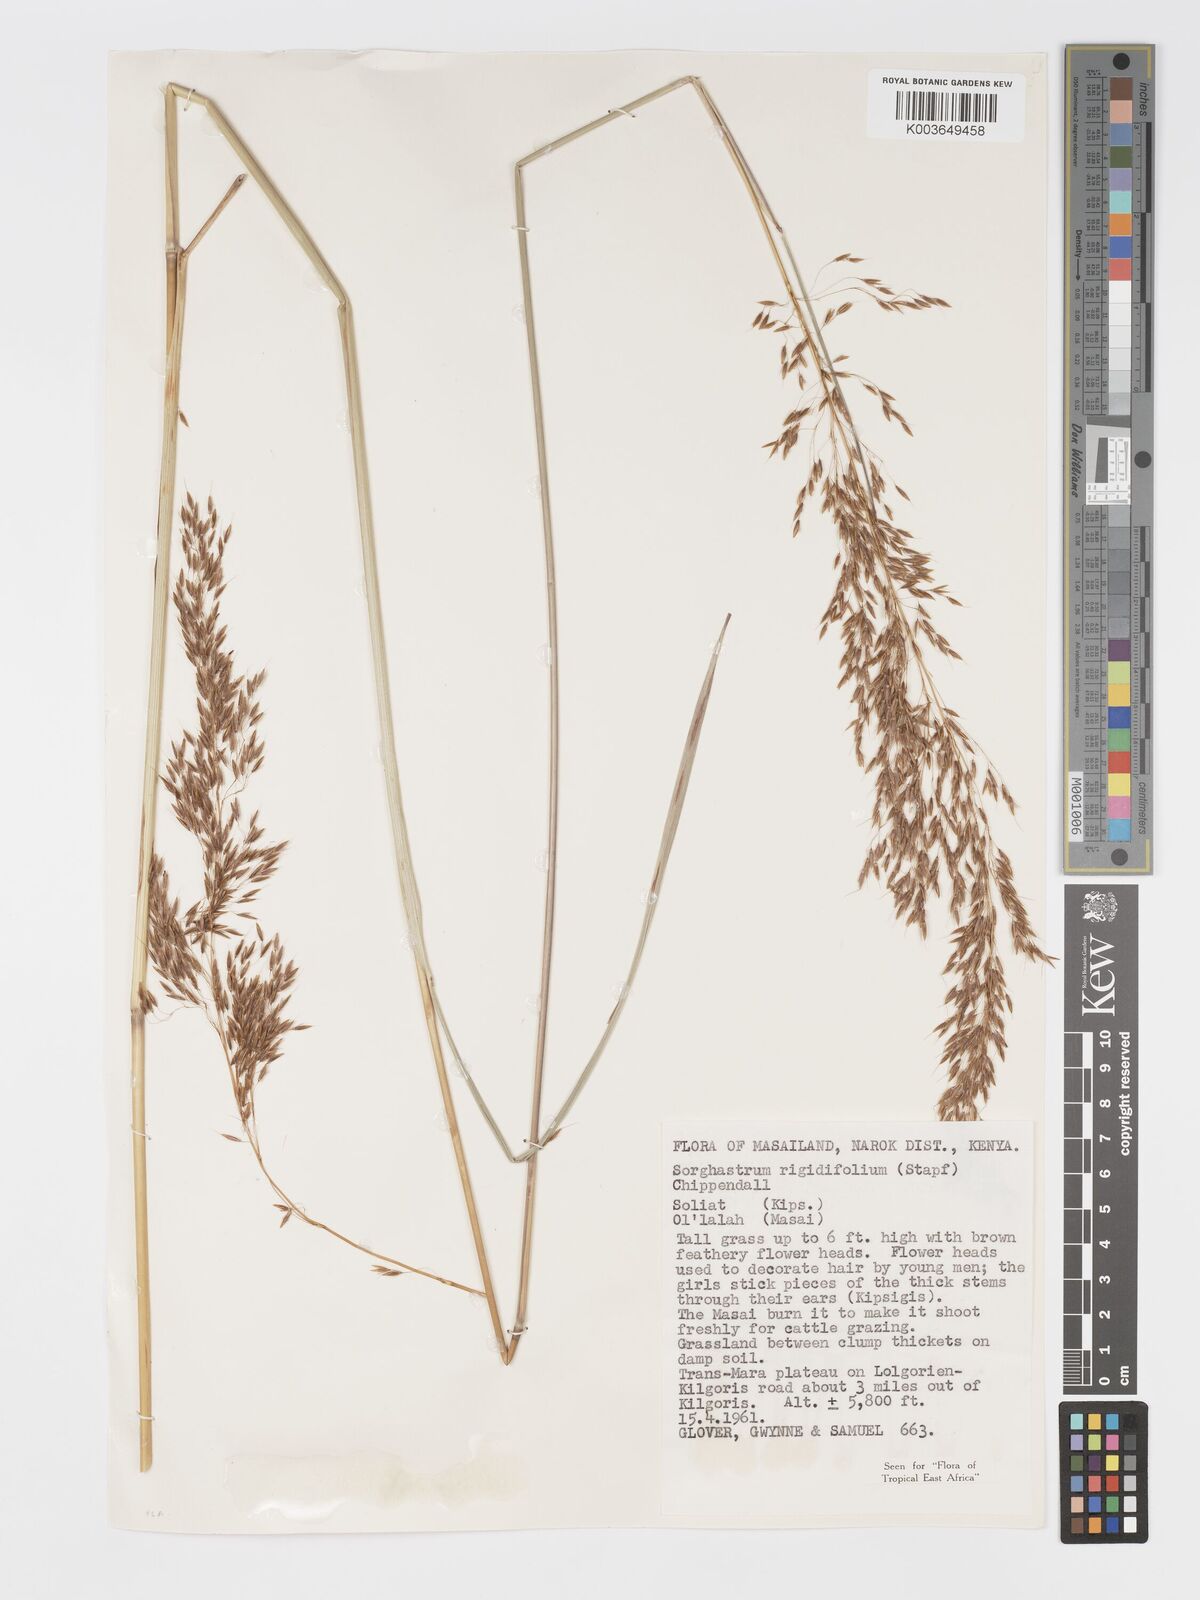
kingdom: Plantae
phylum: Tracheophyta
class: Liliopsida
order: Poales
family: Poaceae
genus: Sorghastrum
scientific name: Sorghastrum stipoides
